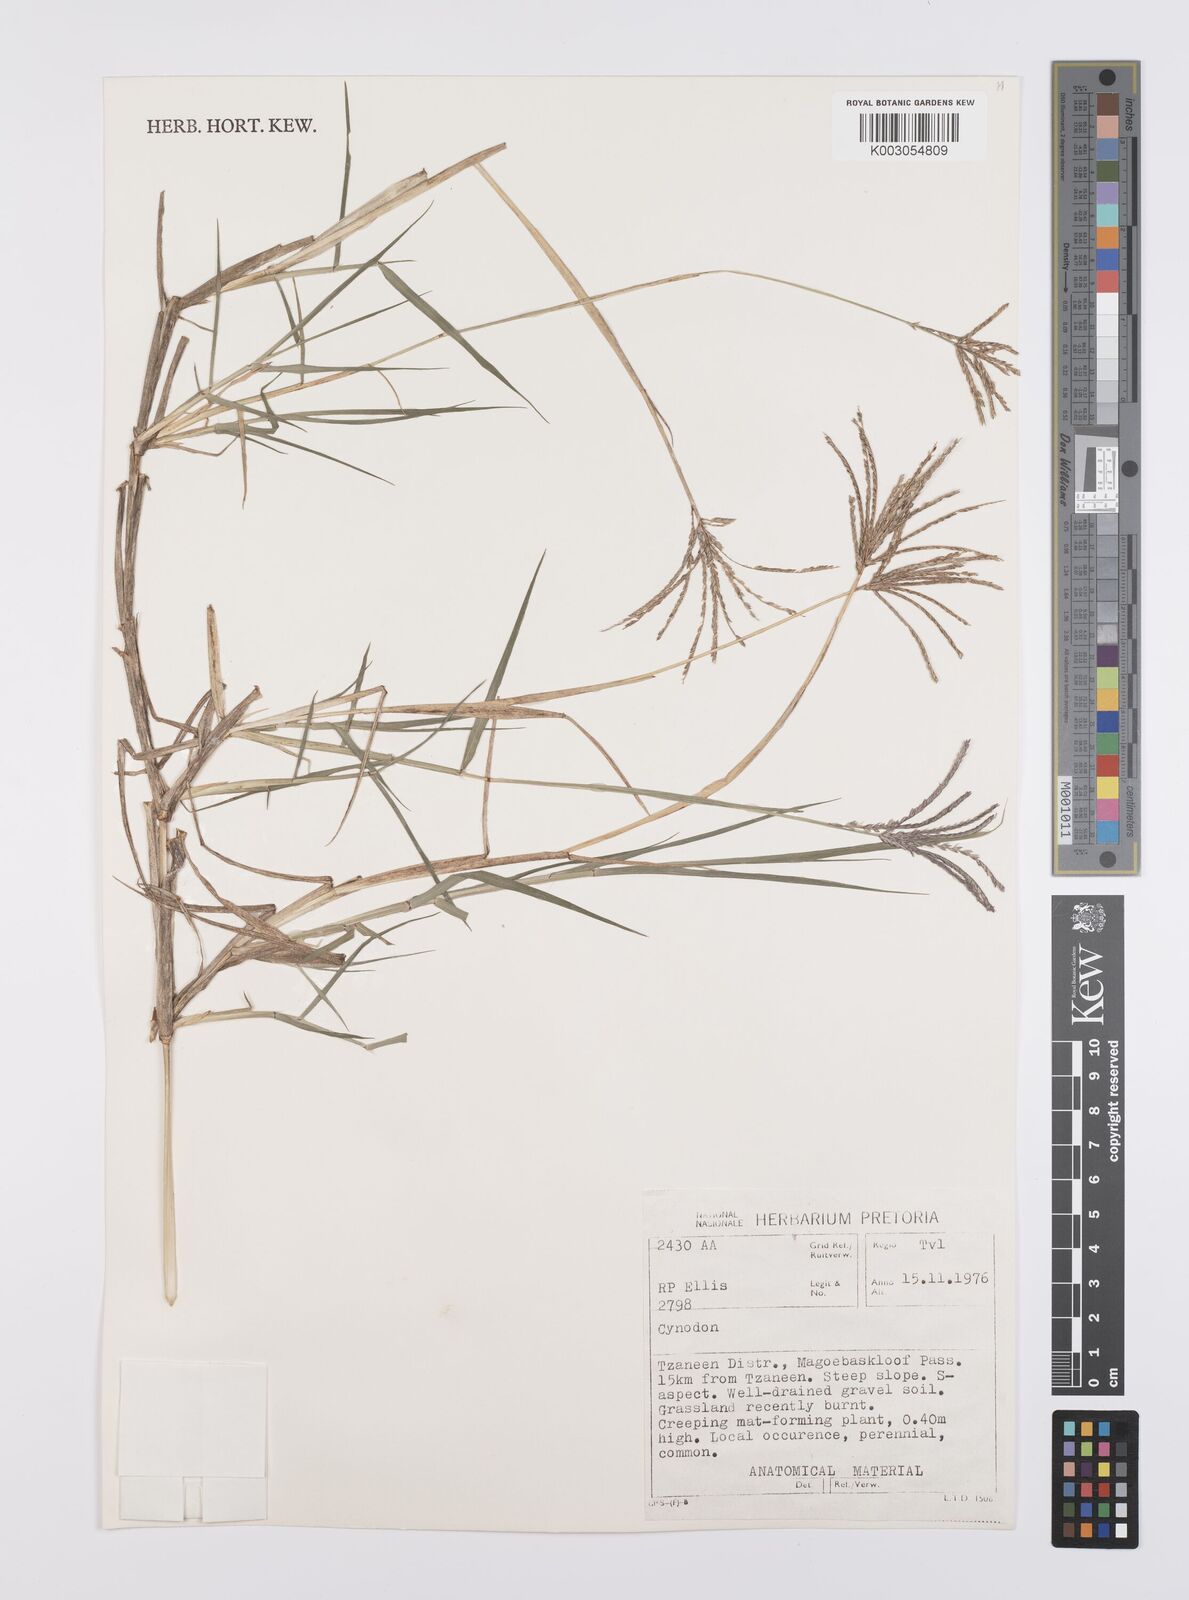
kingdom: Plantae
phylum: Tracheophyta
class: Liliopsida
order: Poales
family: Poaceae
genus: Cynodon
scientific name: Cynodon dactylon
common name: Bermuda grass
